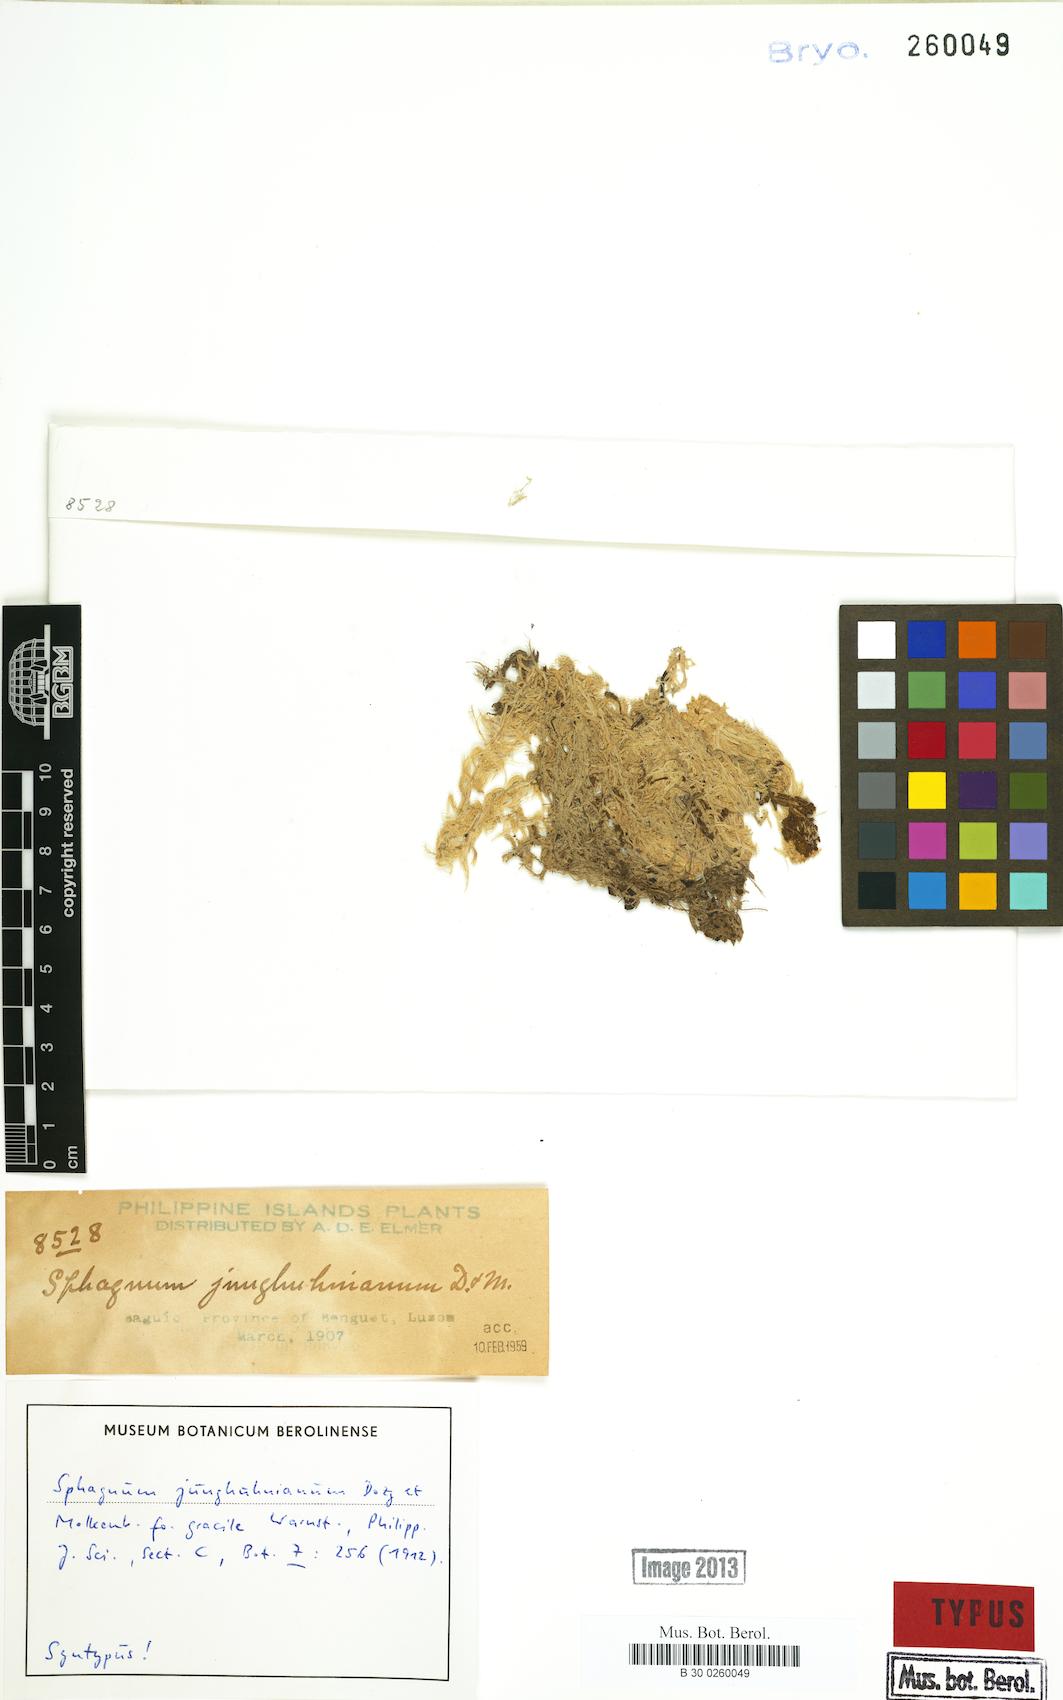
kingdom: Plantae
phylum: Bryophyta
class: Sphagnopsida
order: Sphagnales
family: Sphagnaceae
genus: Sphagnum
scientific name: Sphagnum junghuhnianum
